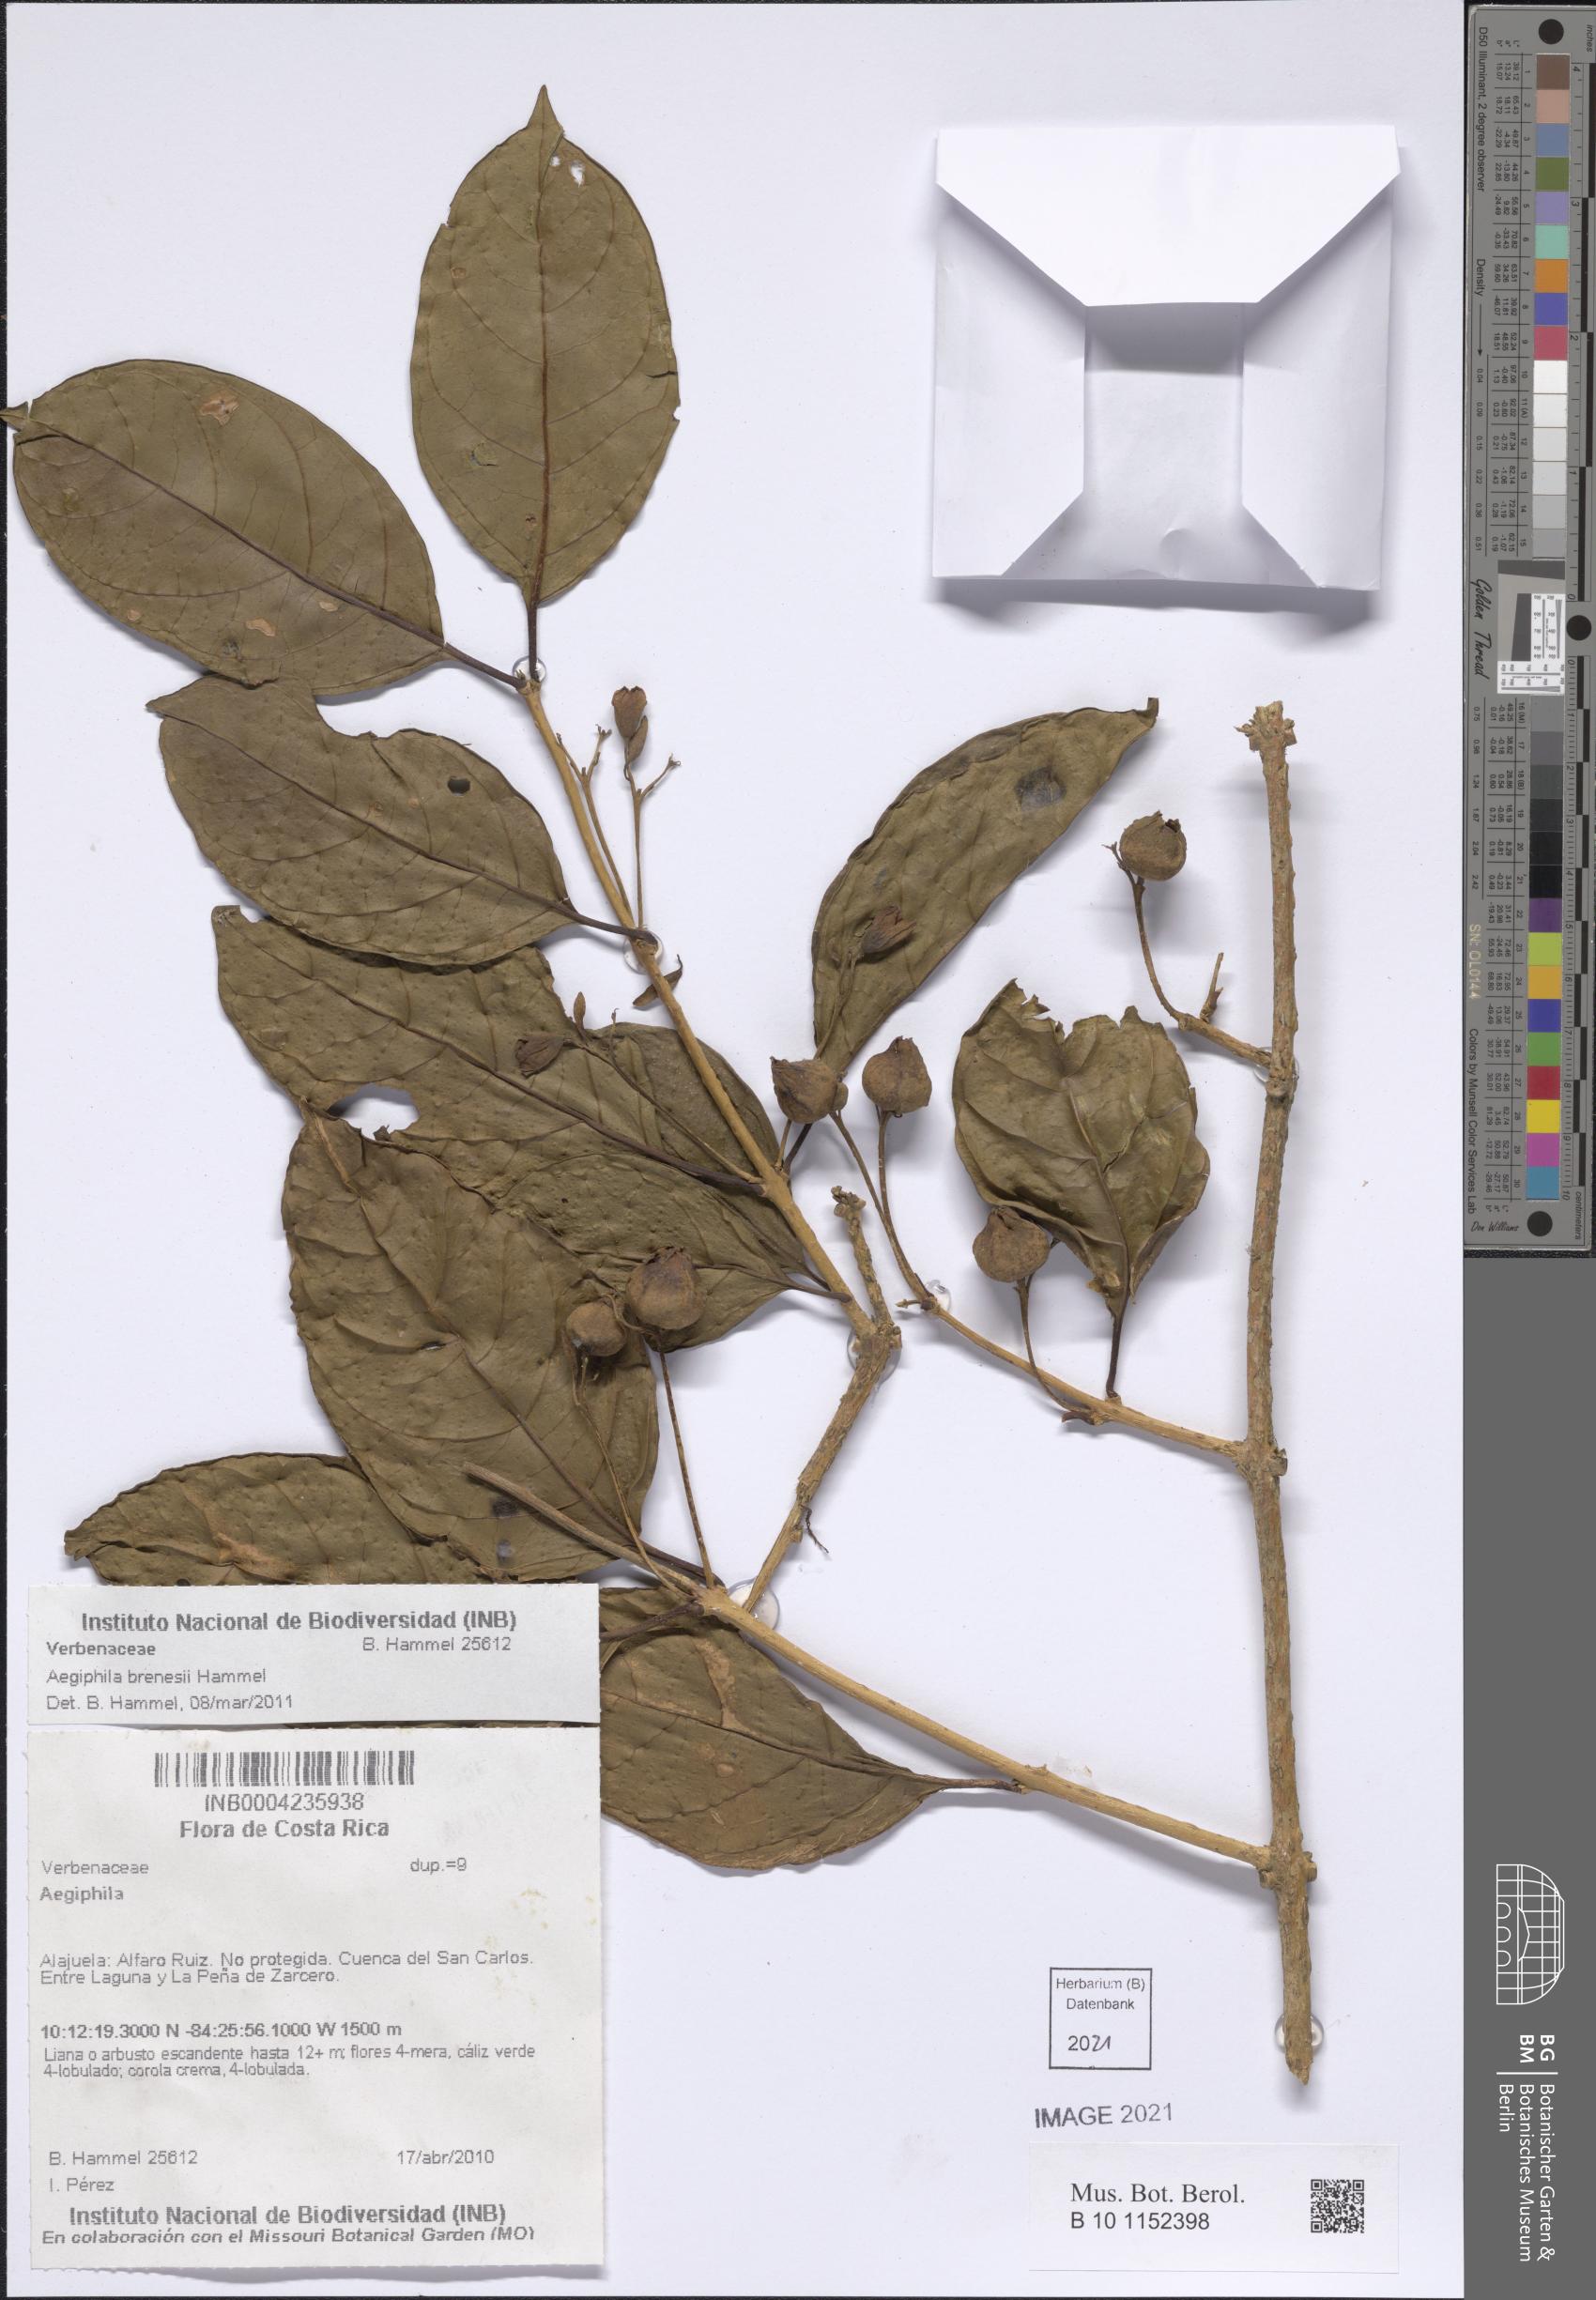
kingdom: Plantae
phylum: Tracheophyta
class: Magnoliopsida
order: Lamiales
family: Lamiaceae
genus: Aegiphila
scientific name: Aegiphila brenesii
